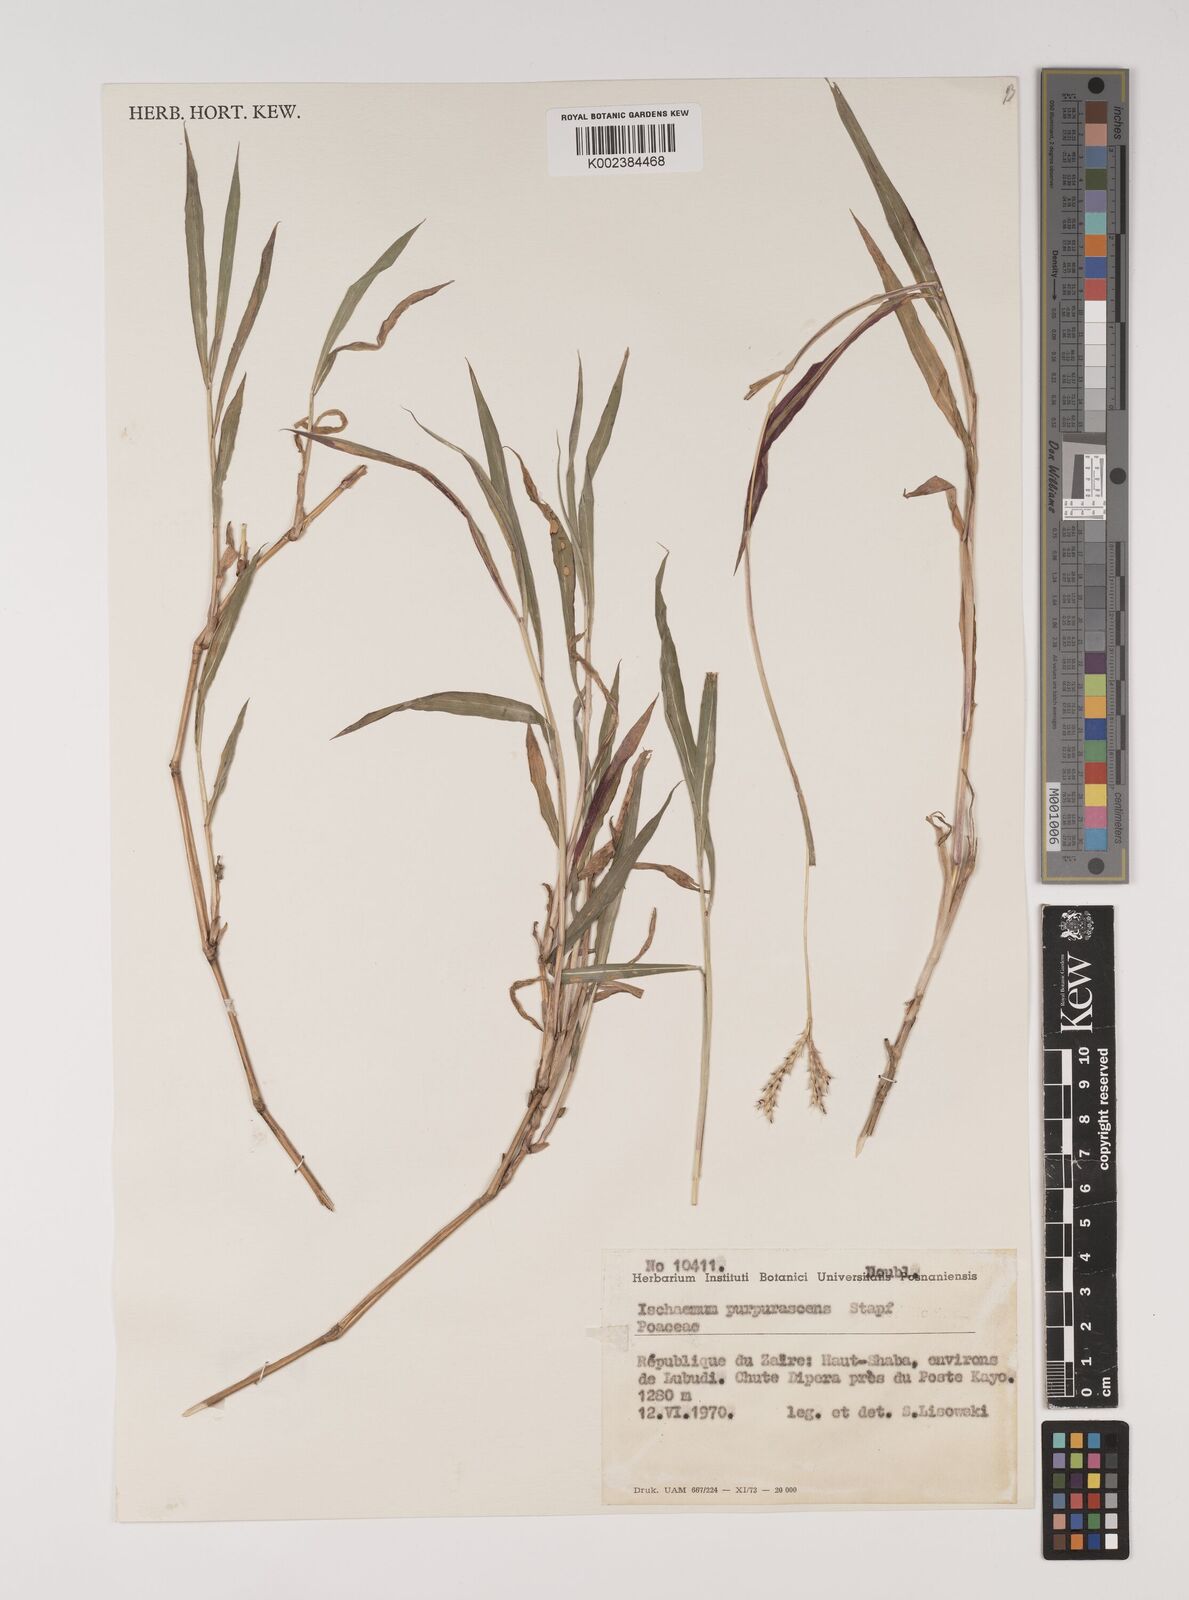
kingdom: Plantae
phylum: Tracheophyta
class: Liliopsida
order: Poales
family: Poaceae
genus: Ischaemum
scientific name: Ischaemum polystachyum
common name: Paddle grass
